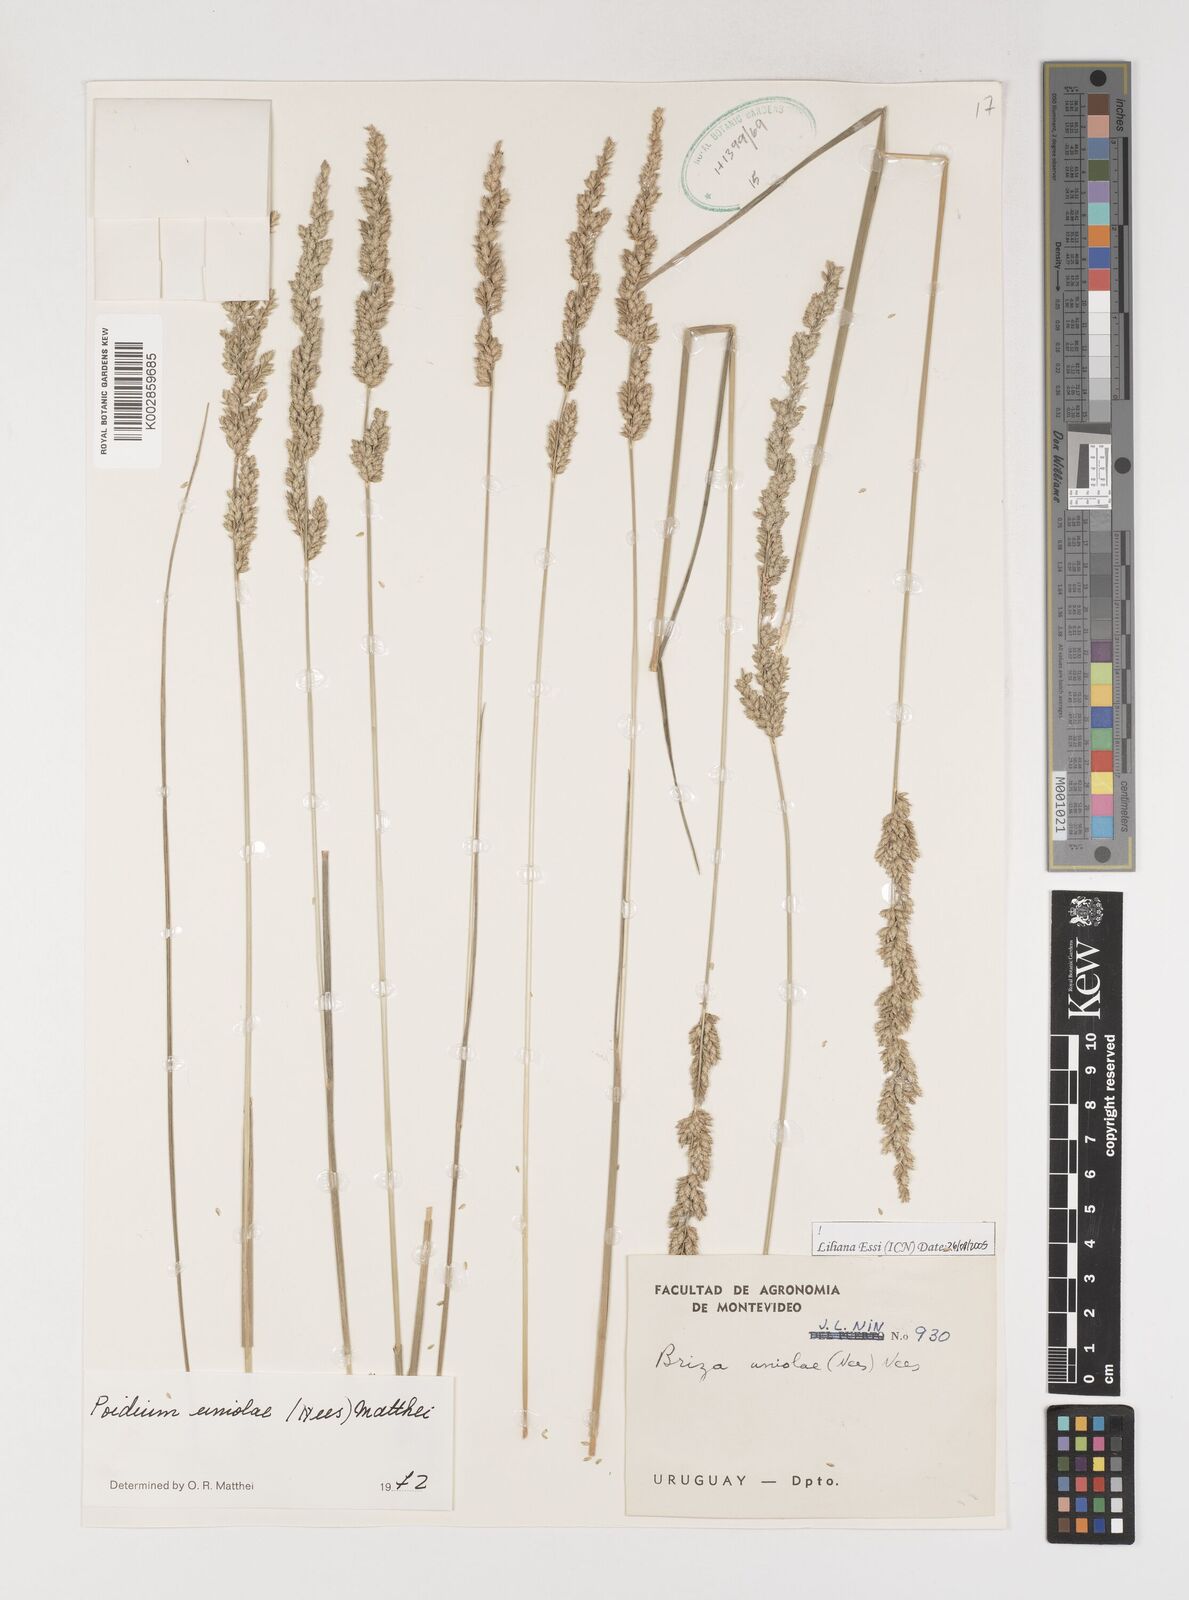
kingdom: Plantae
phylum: Tracheophyta
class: Liliopsida
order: Poales
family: Poaceae
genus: Poidium
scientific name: Poidium uniolae
